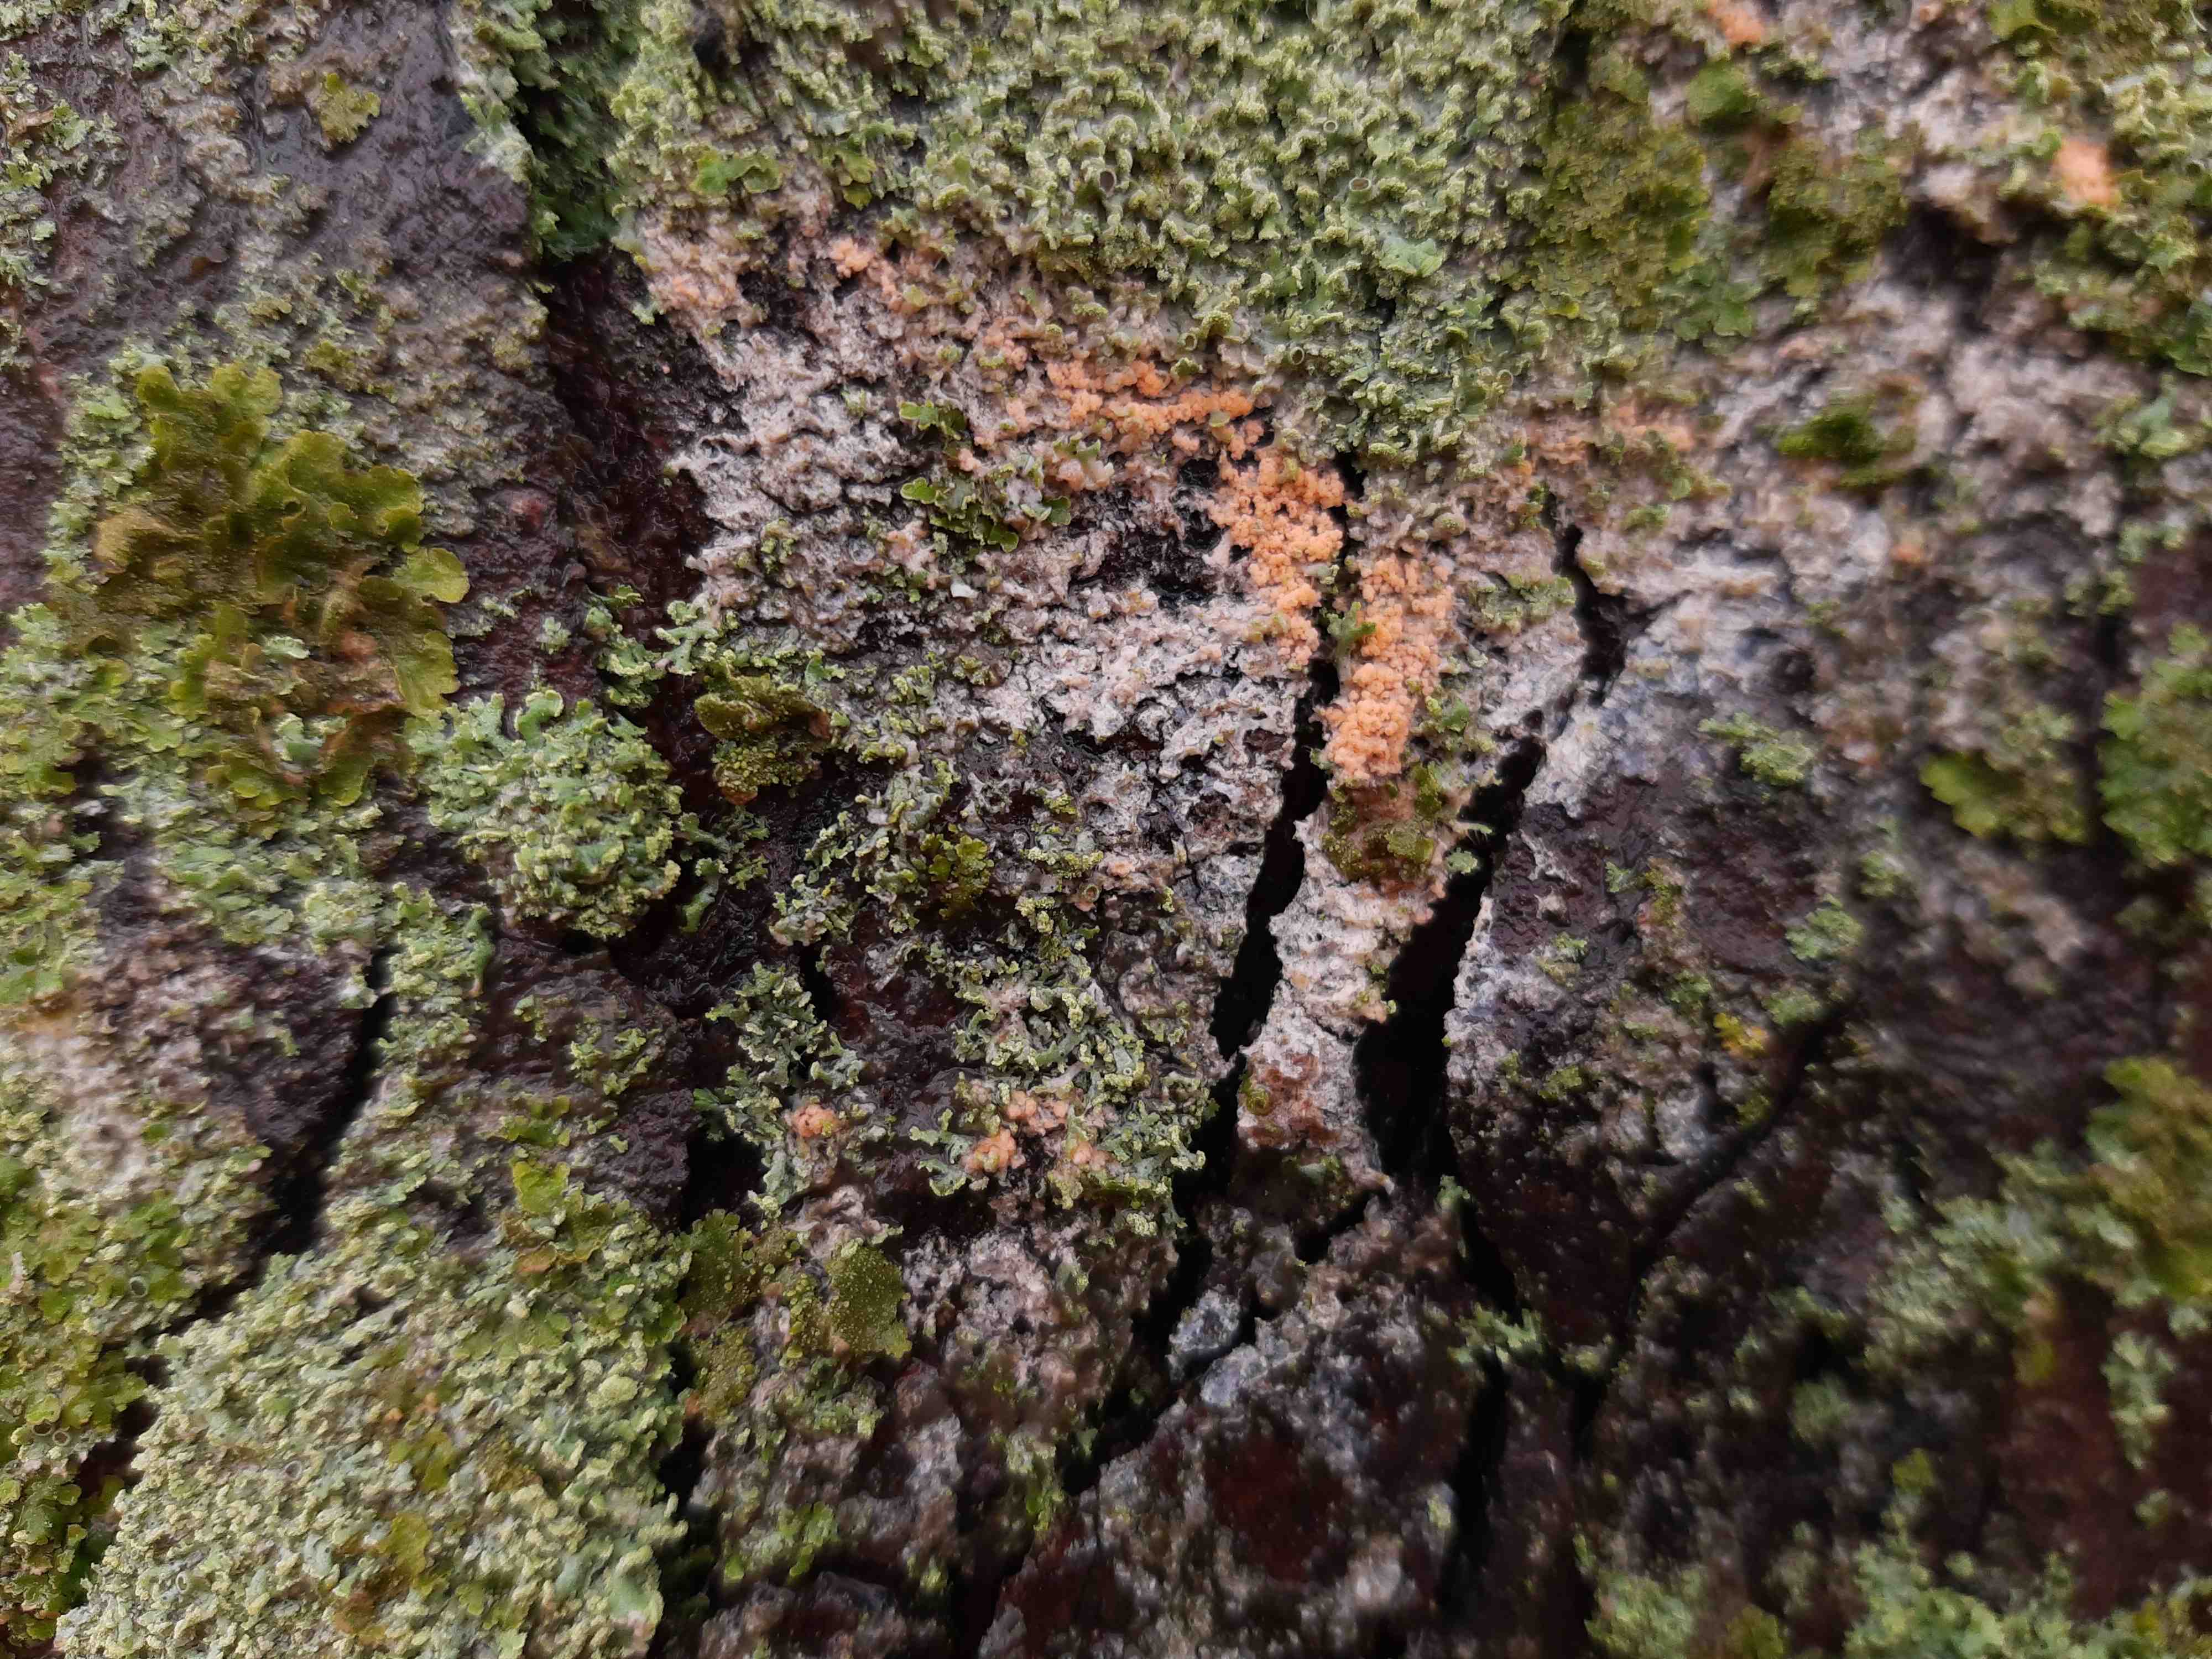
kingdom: Fungi
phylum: Basidiomycota
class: Agaricomycetes
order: Corticiales
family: Corticiaceae
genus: Erythricium
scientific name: Erythricium aurantiacum
